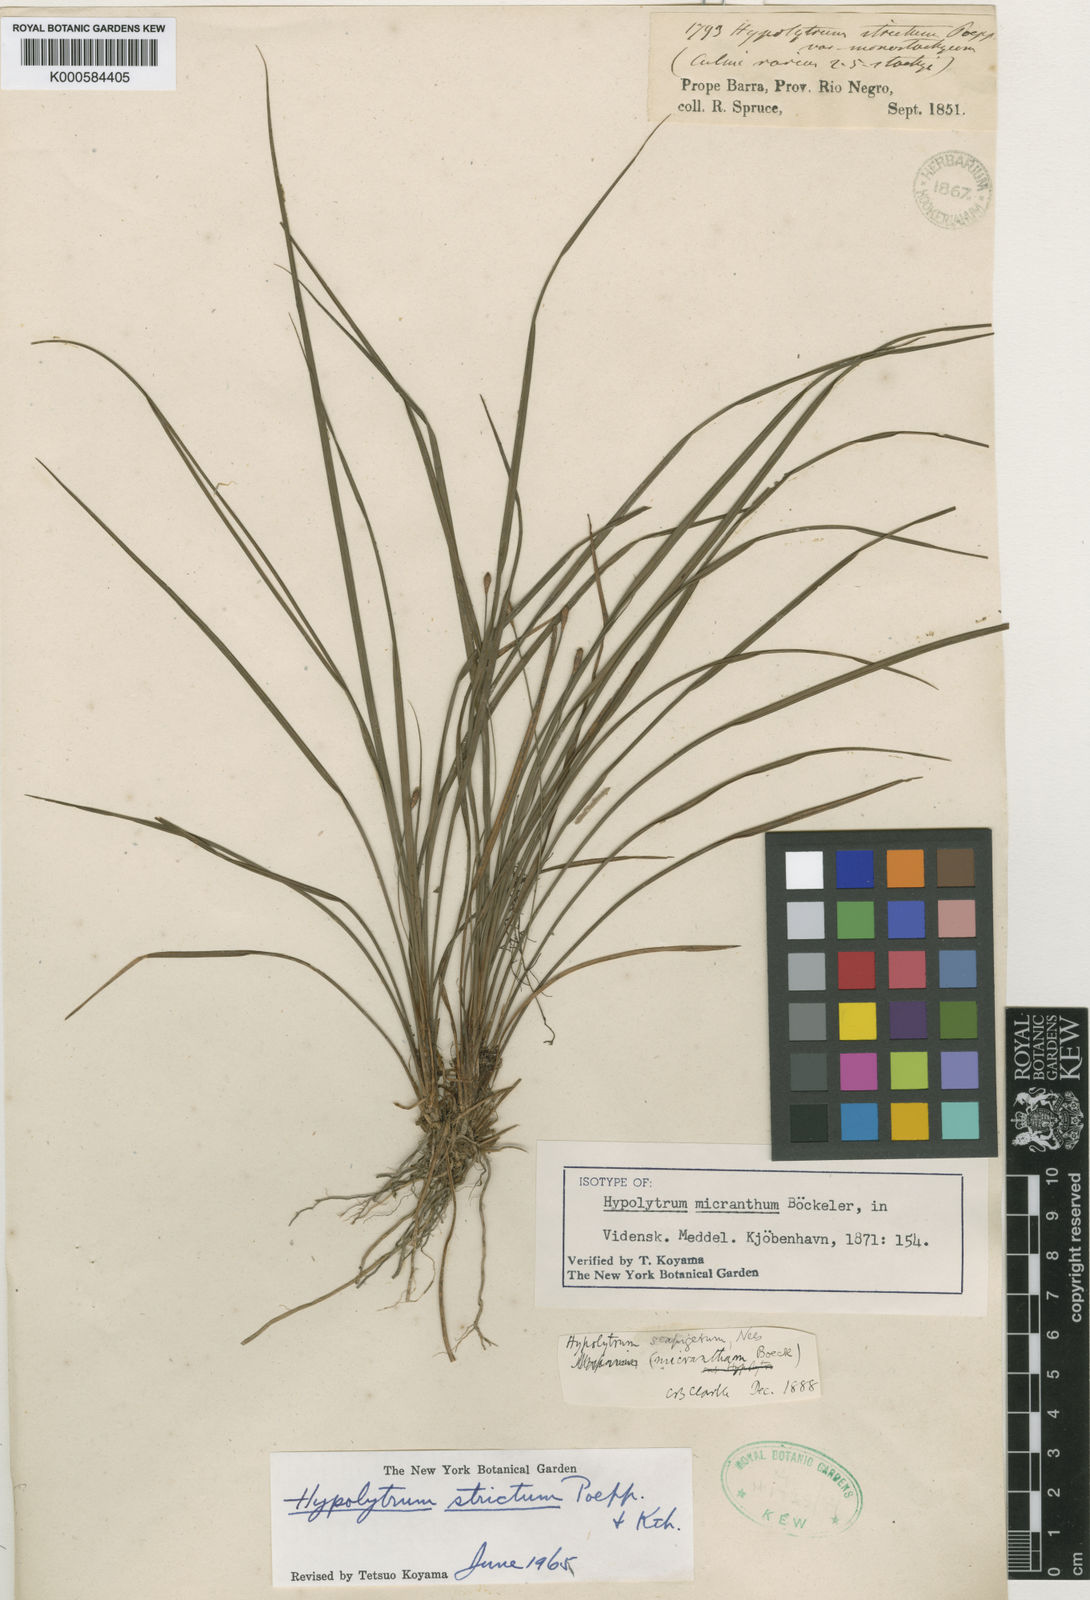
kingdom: Plantae
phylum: Tracheophyta
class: Liliopsida
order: Poales
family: Cyperaceae
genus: Hypolytrum
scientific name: Hypolytrum strictum
